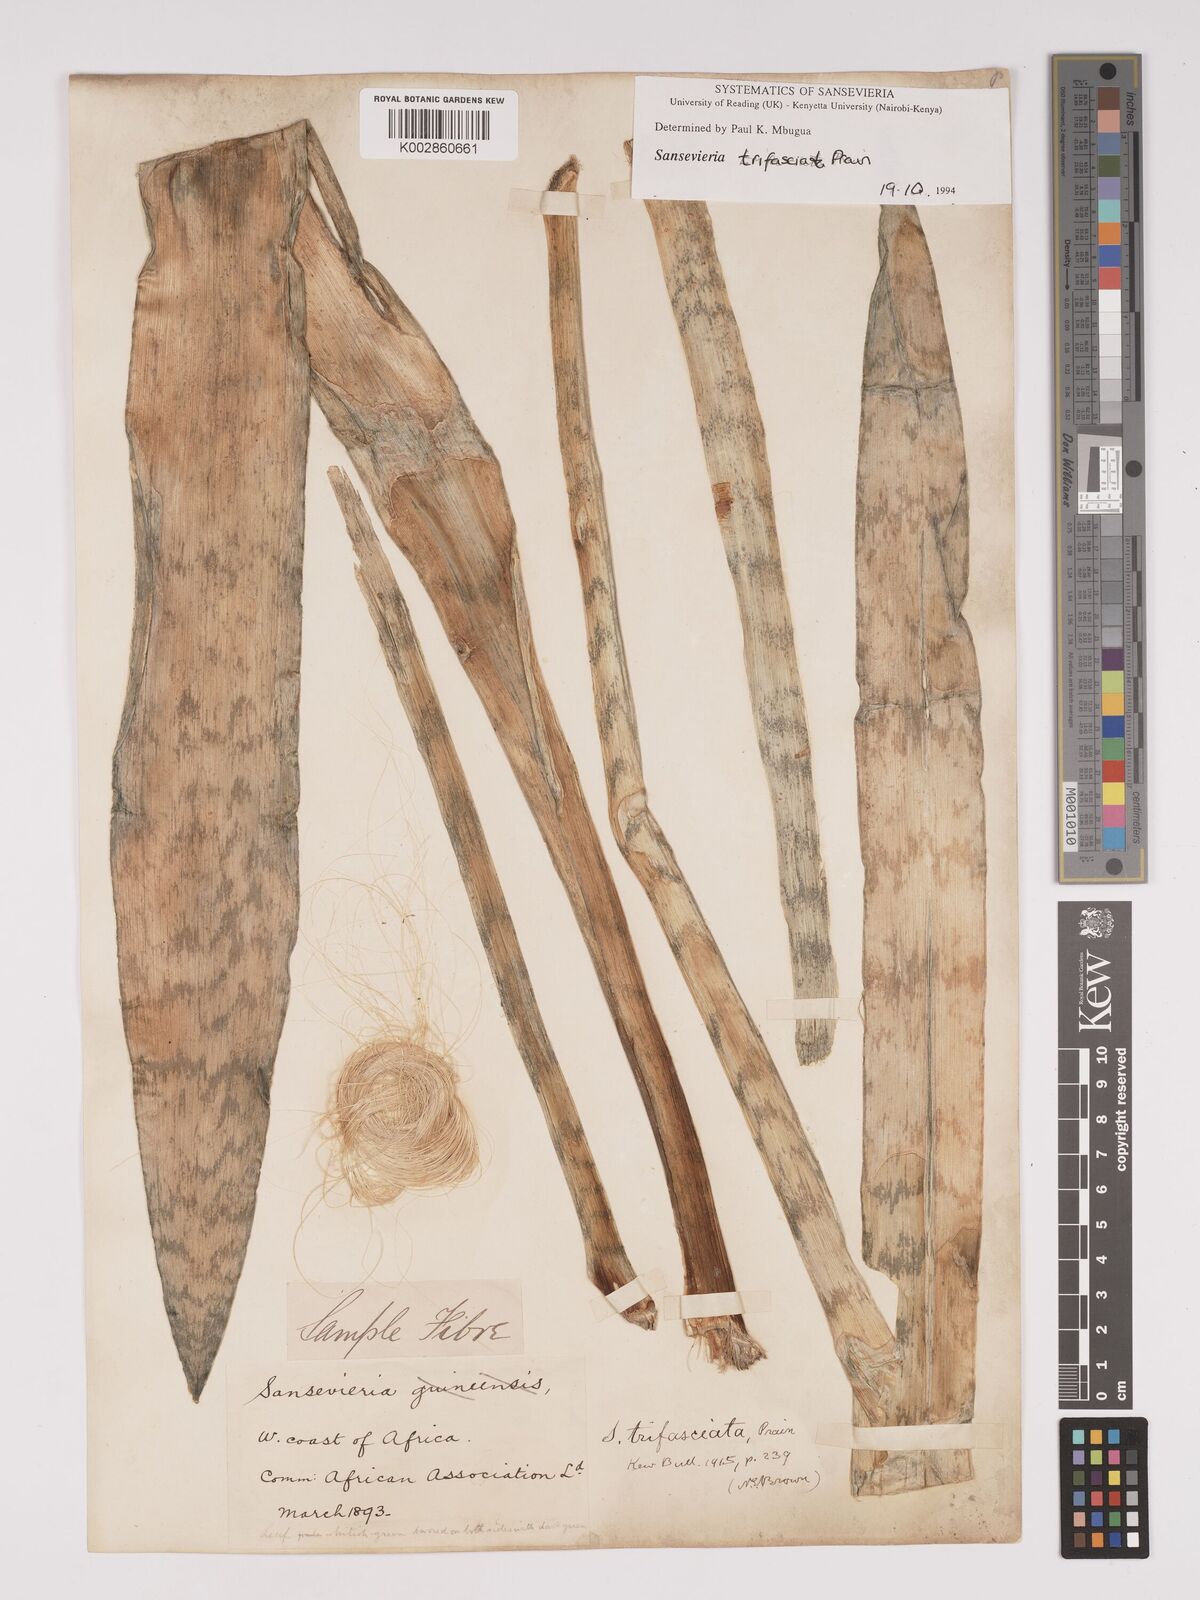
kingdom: Plantae
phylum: Tracheophyta
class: Liliopsida
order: Asparagales
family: Asparagaceae
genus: Dracaena
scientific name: Dracaena trifasciata
